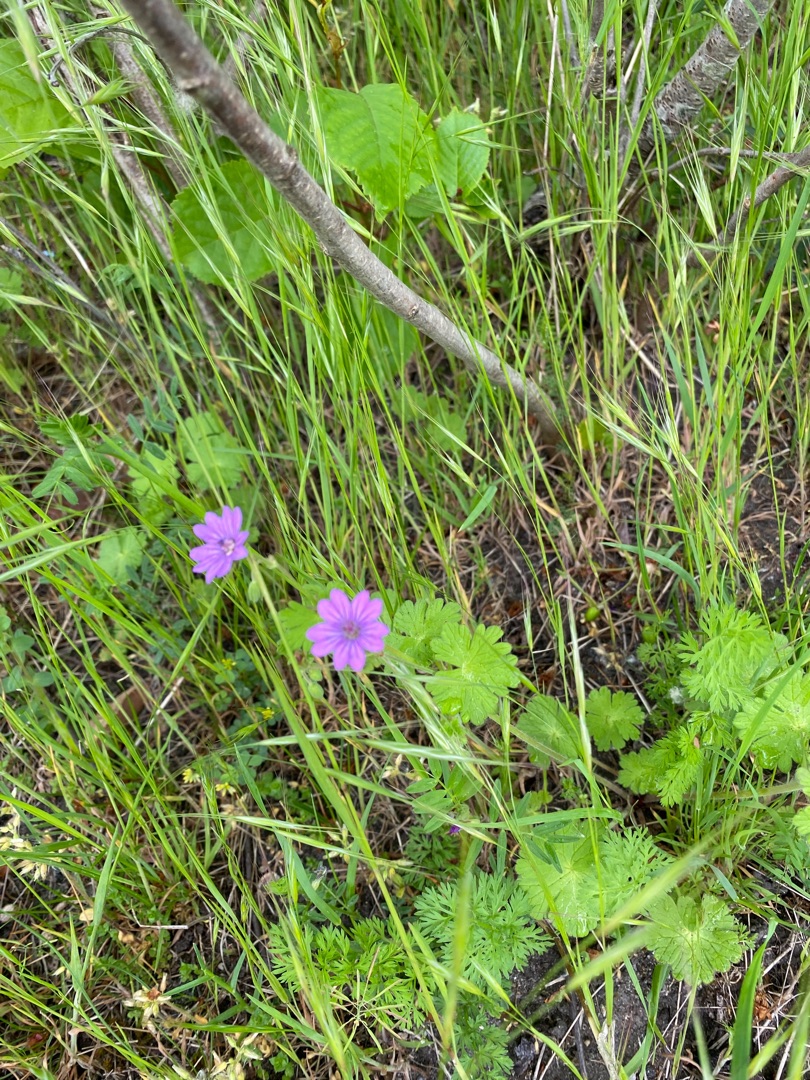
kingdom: Plantae
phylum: Tracheophyta
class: Magnoliopsida
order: Geraniales
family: Geraniaceae
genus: Geranium
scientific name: Geranium pyrenaicum
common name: Pyrenæisk storkenæb
